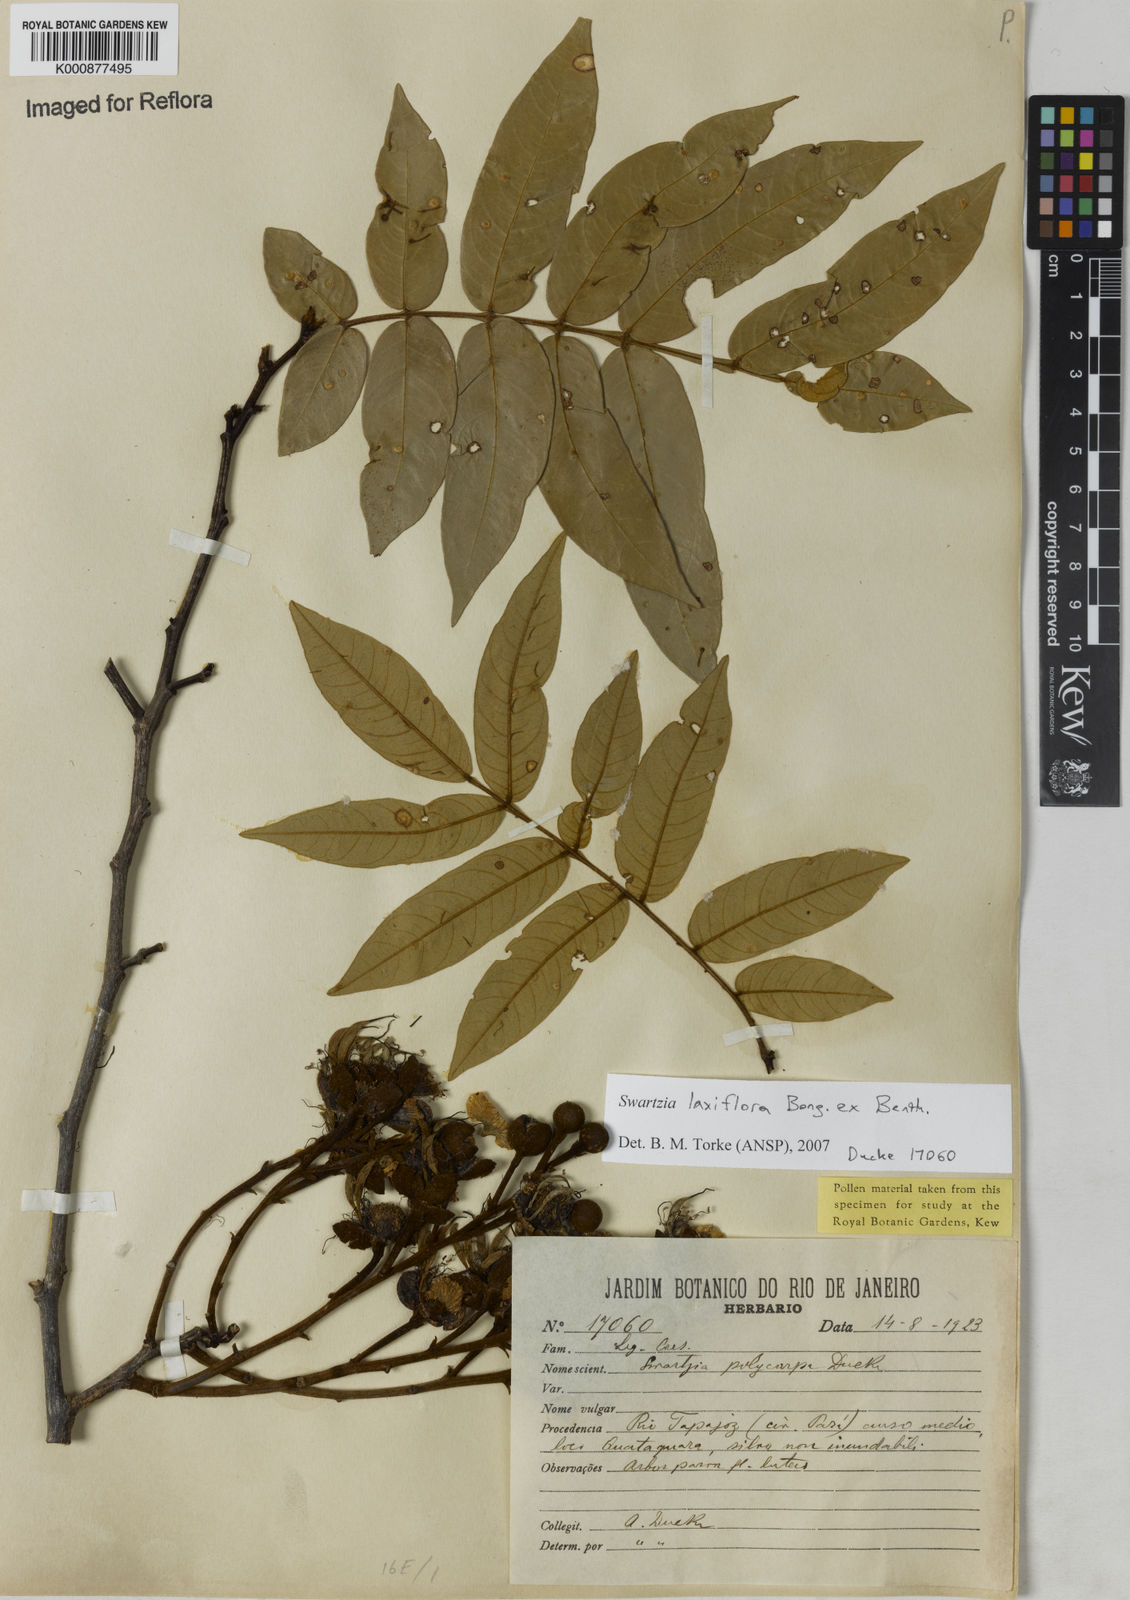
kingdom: Plantae
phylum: Tracheophyta
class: Magnoliopsida
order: Fabales
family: Fabaceae
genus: Swartzia
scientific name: Swartzia laxiflora
